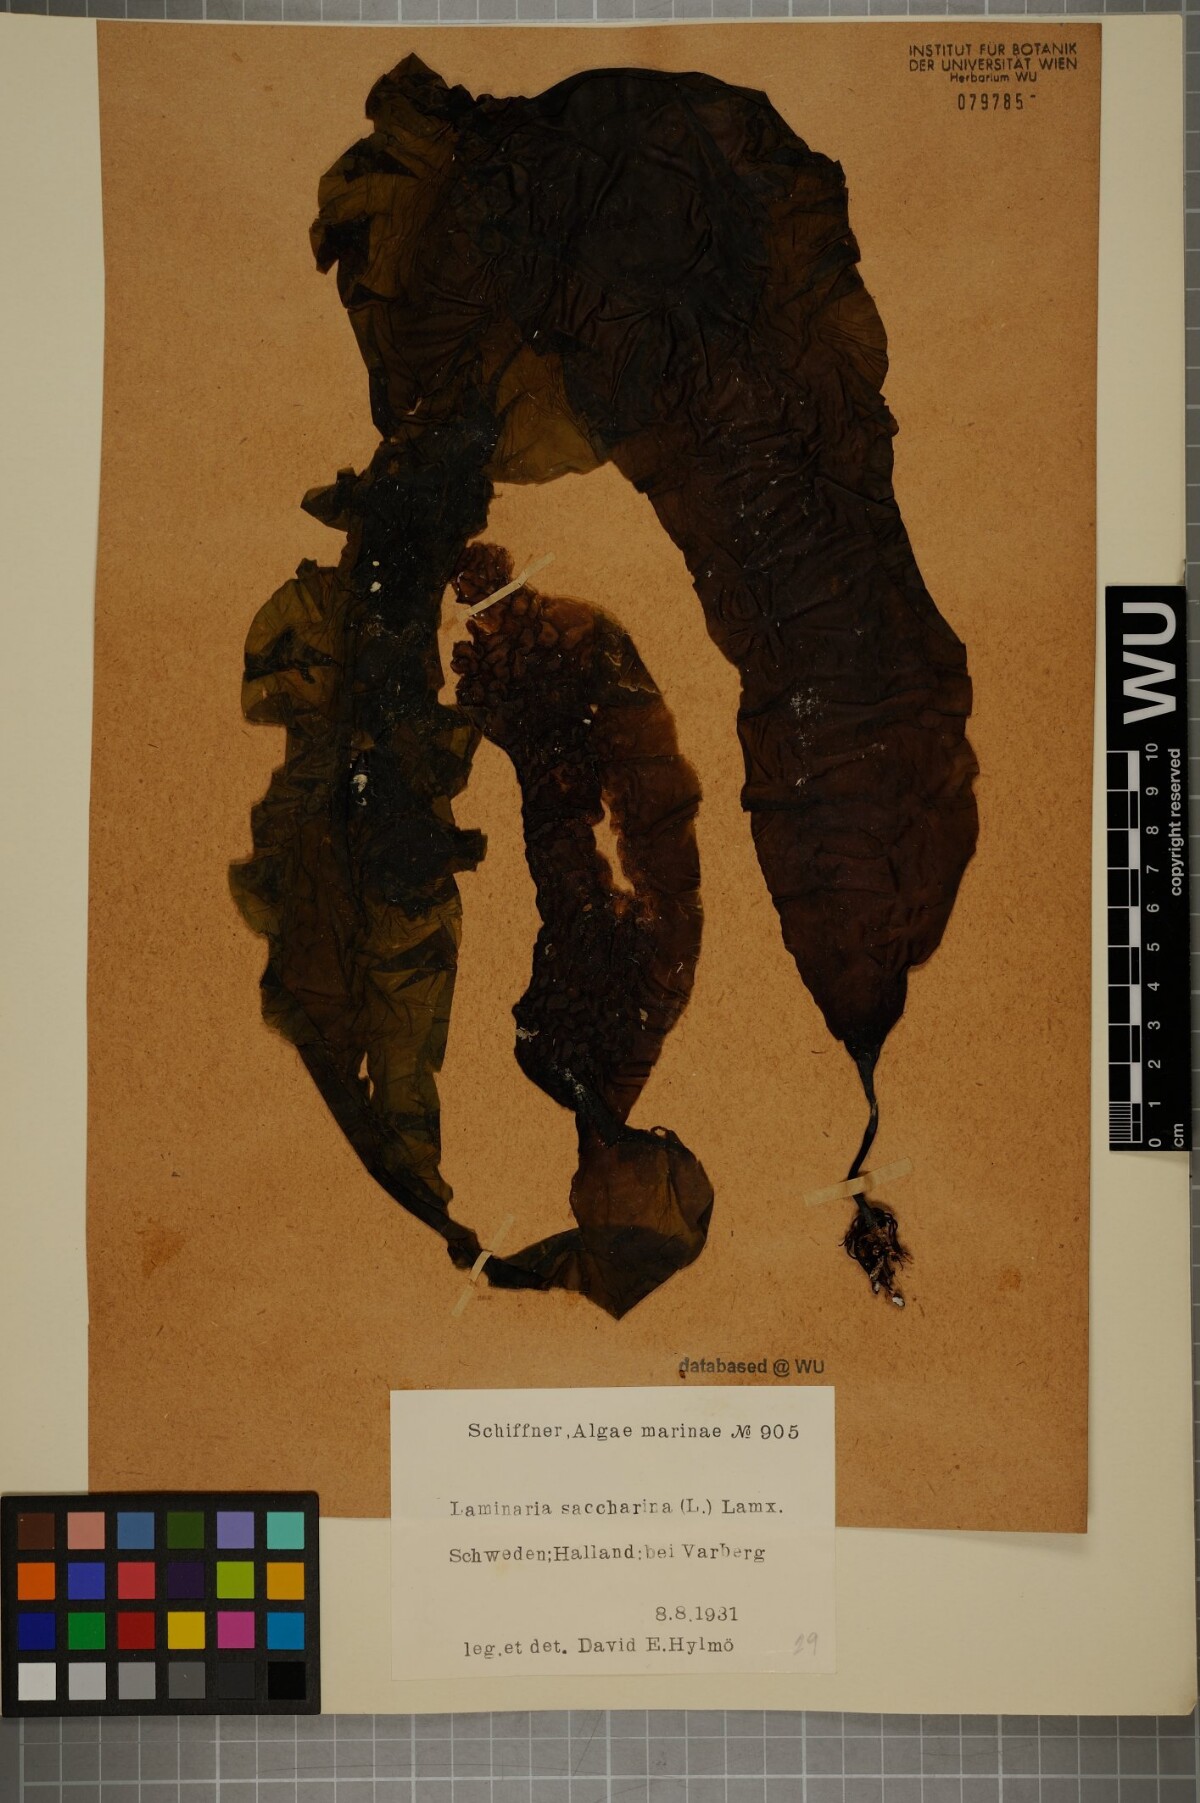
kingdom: Chromista
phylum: Ochrophyta
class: Phaeophyceae
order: Laminariales
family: Laminariaceae
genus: Saccharina
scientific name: Saccharina latissima
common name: Poor man's weather glass
